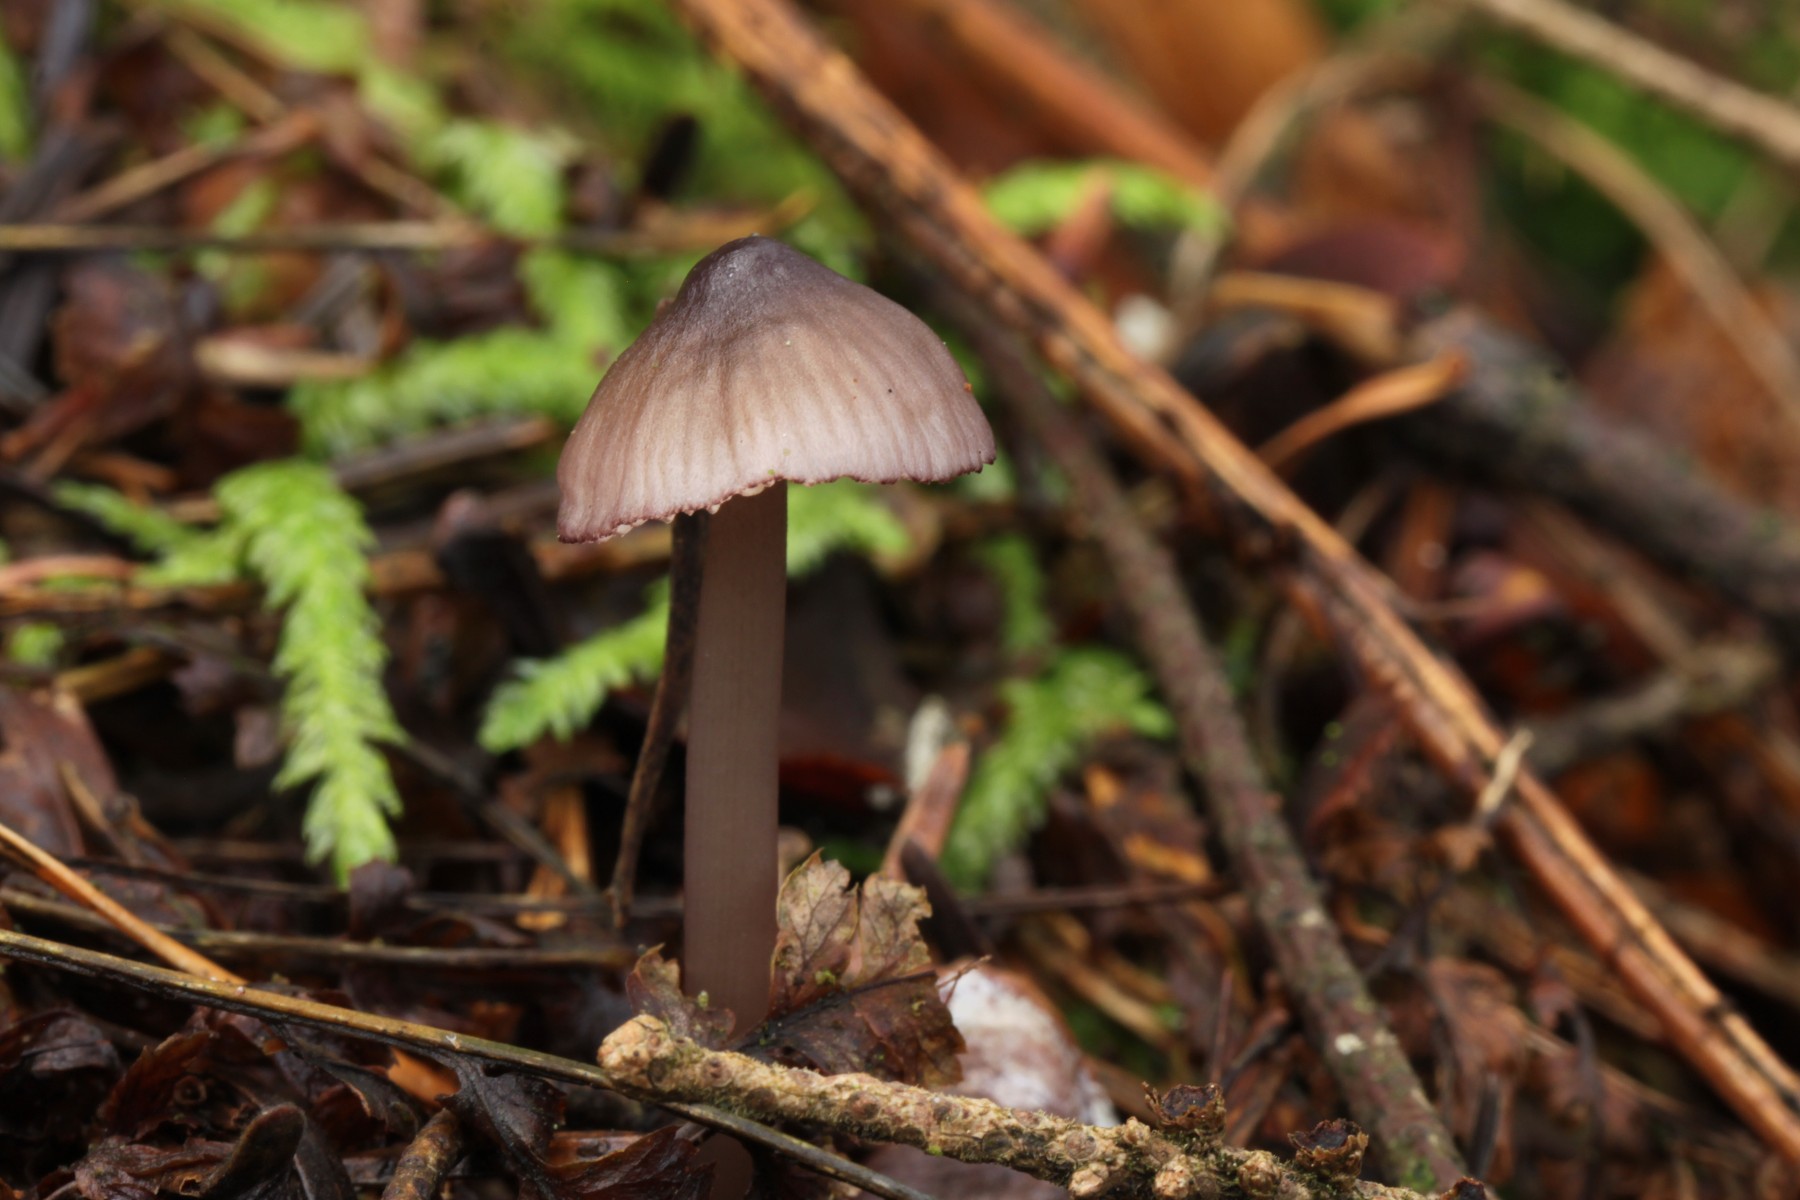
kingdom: Fungi
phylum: Basidiomycota
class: Agaricomycetes
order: Agaricales
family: Mycenaceae
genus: Mycena
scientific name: Mycena purpureofusca
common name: purpur-huesvamp
